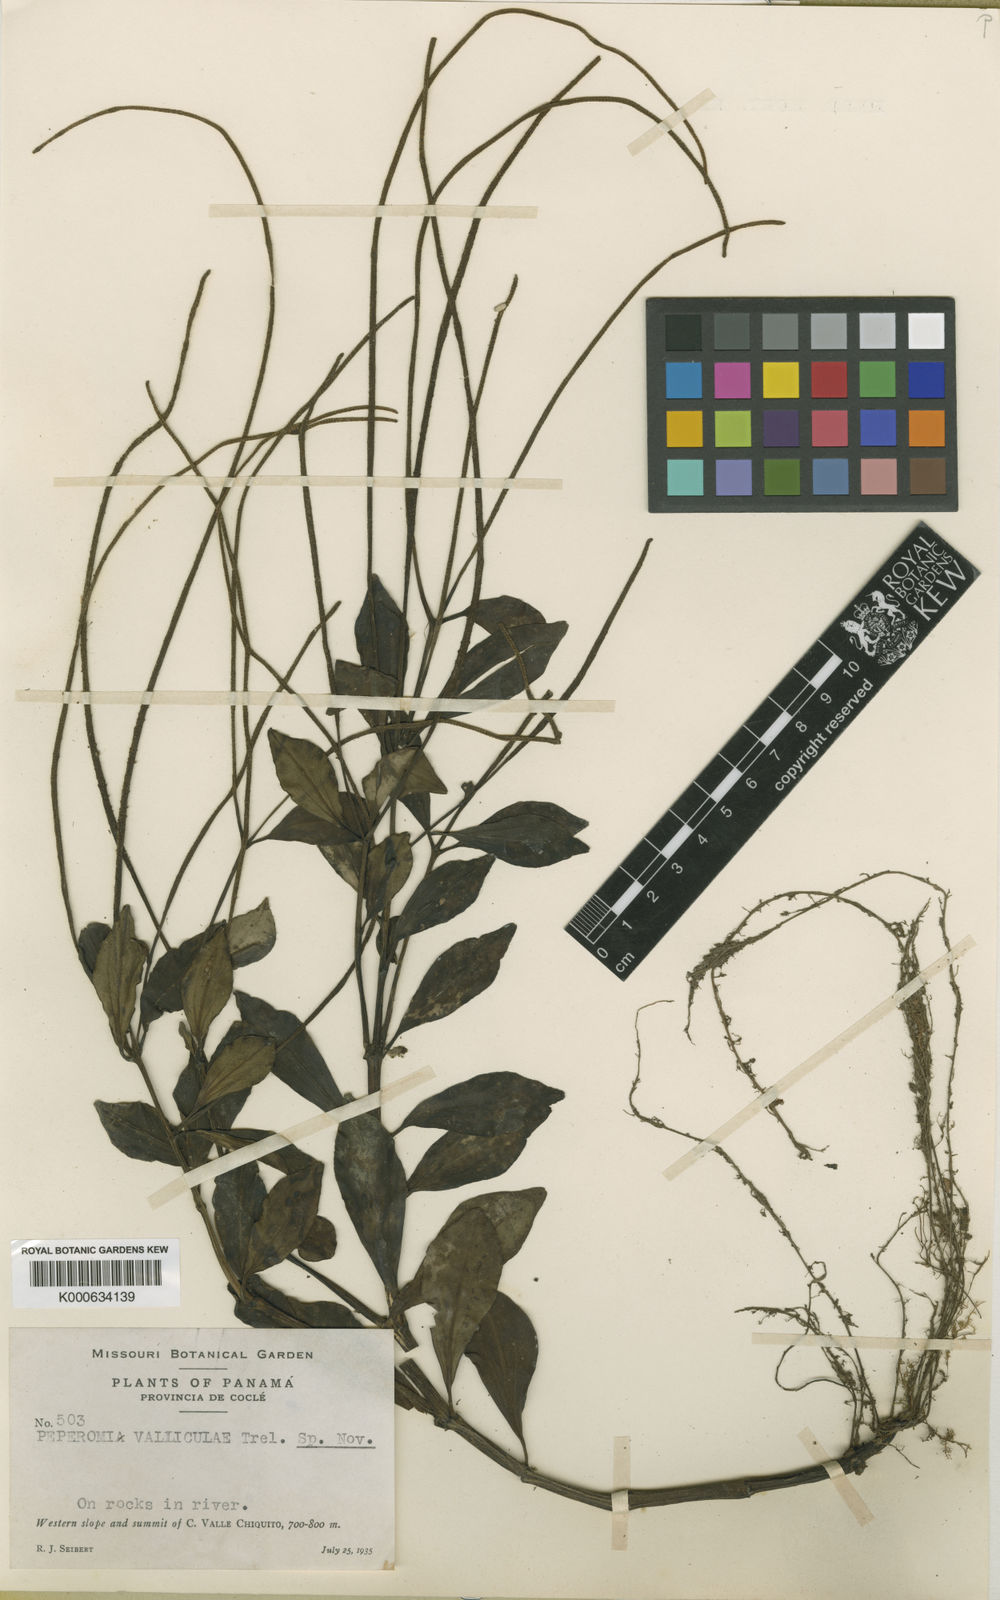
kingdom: Plantae
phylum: Tracheophyta
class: Magnoliopsida
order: Piperales
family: Piperaceae
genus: Peperomia
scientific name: Peperomia valliculae
